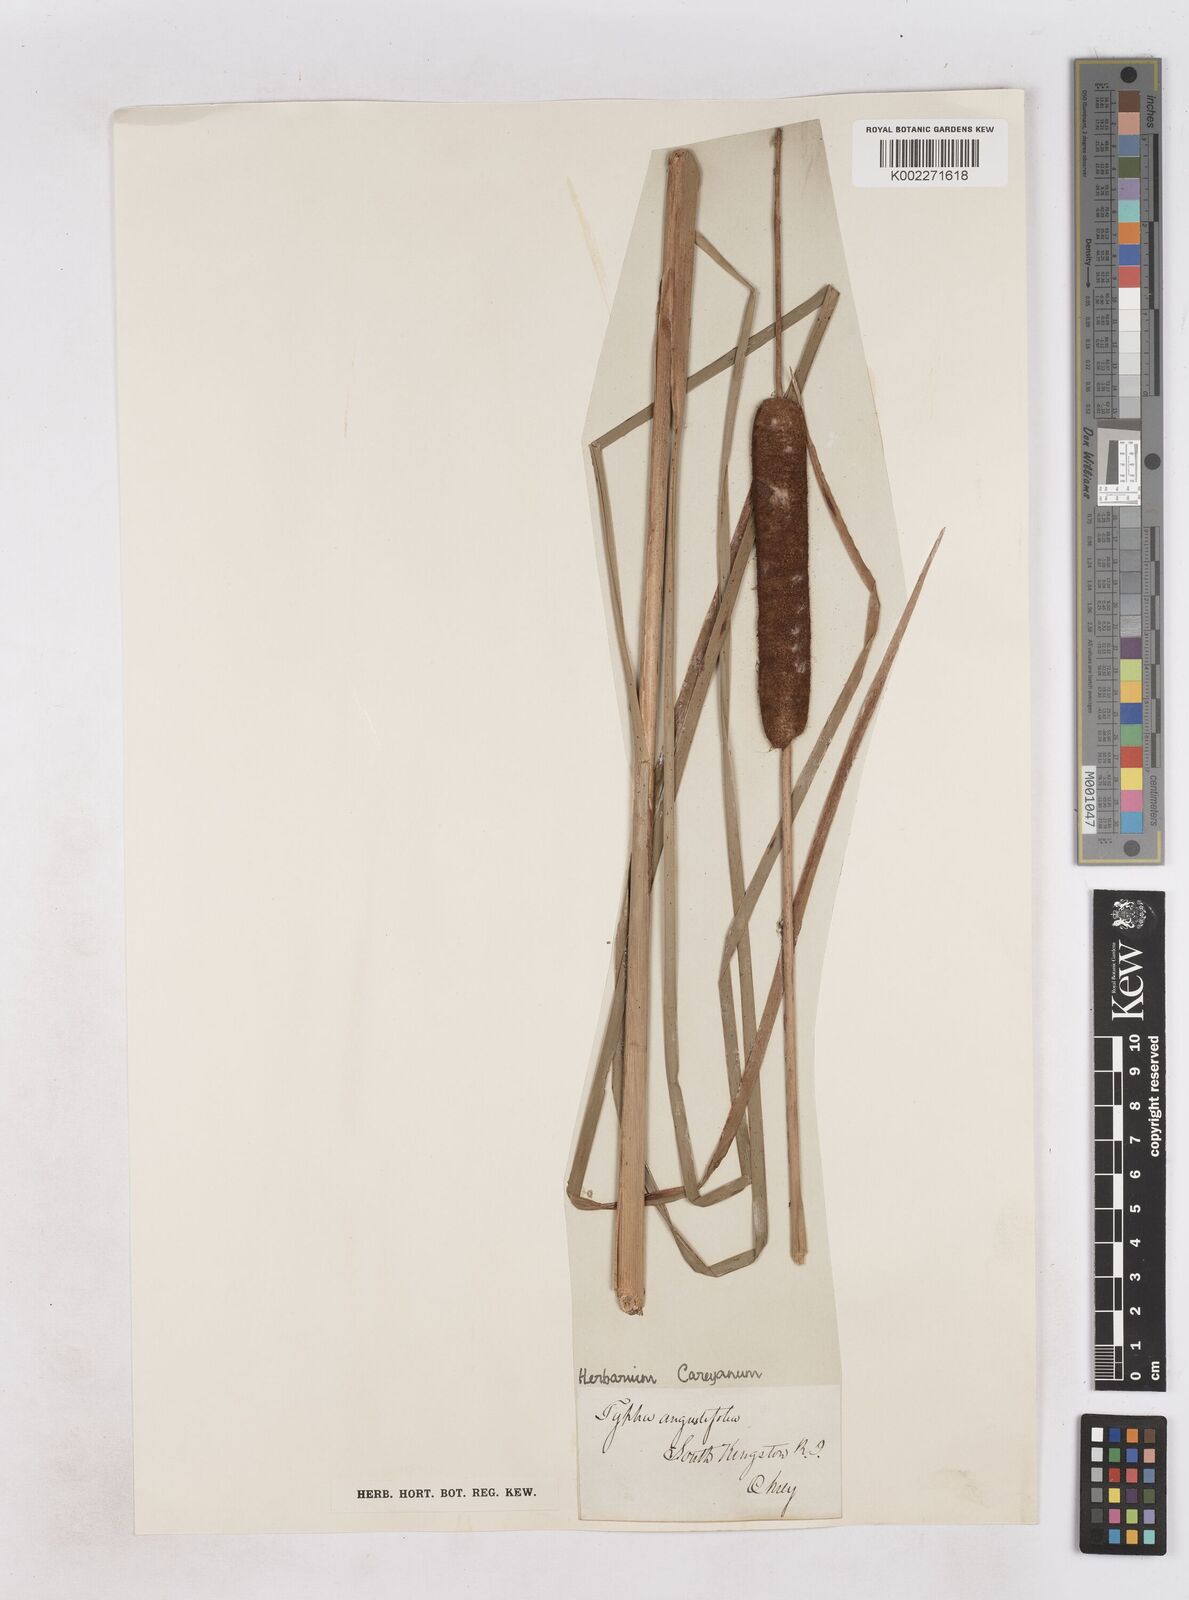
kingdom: Plantae
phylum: Tracheophyta
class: Liliopsida
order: Poales
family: Typhaceae
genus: Typha
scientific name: Typha angustifolia
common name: Lesser bulrush
